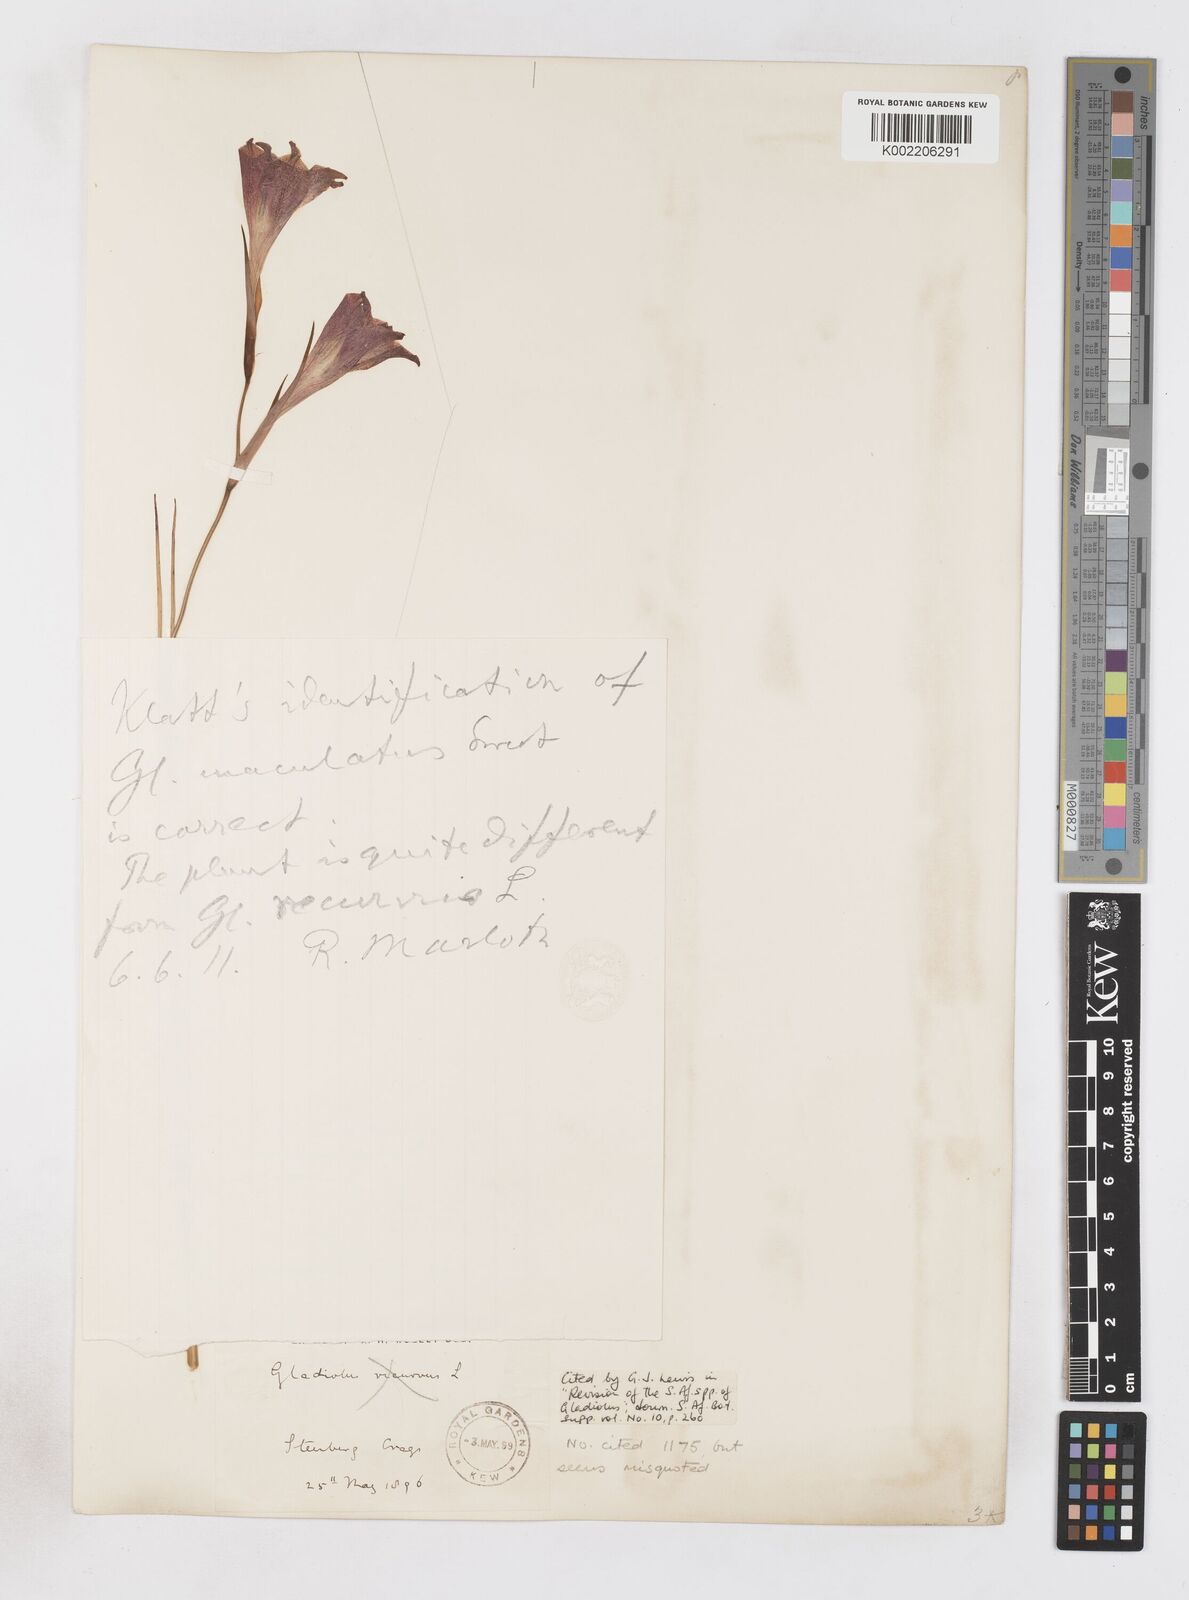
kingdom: Plantae
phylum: Tracheophyta
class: Liliopsida
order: Asparagales
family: Iridaceae
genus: Gladiolus
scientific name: Gladiolus maculatus
